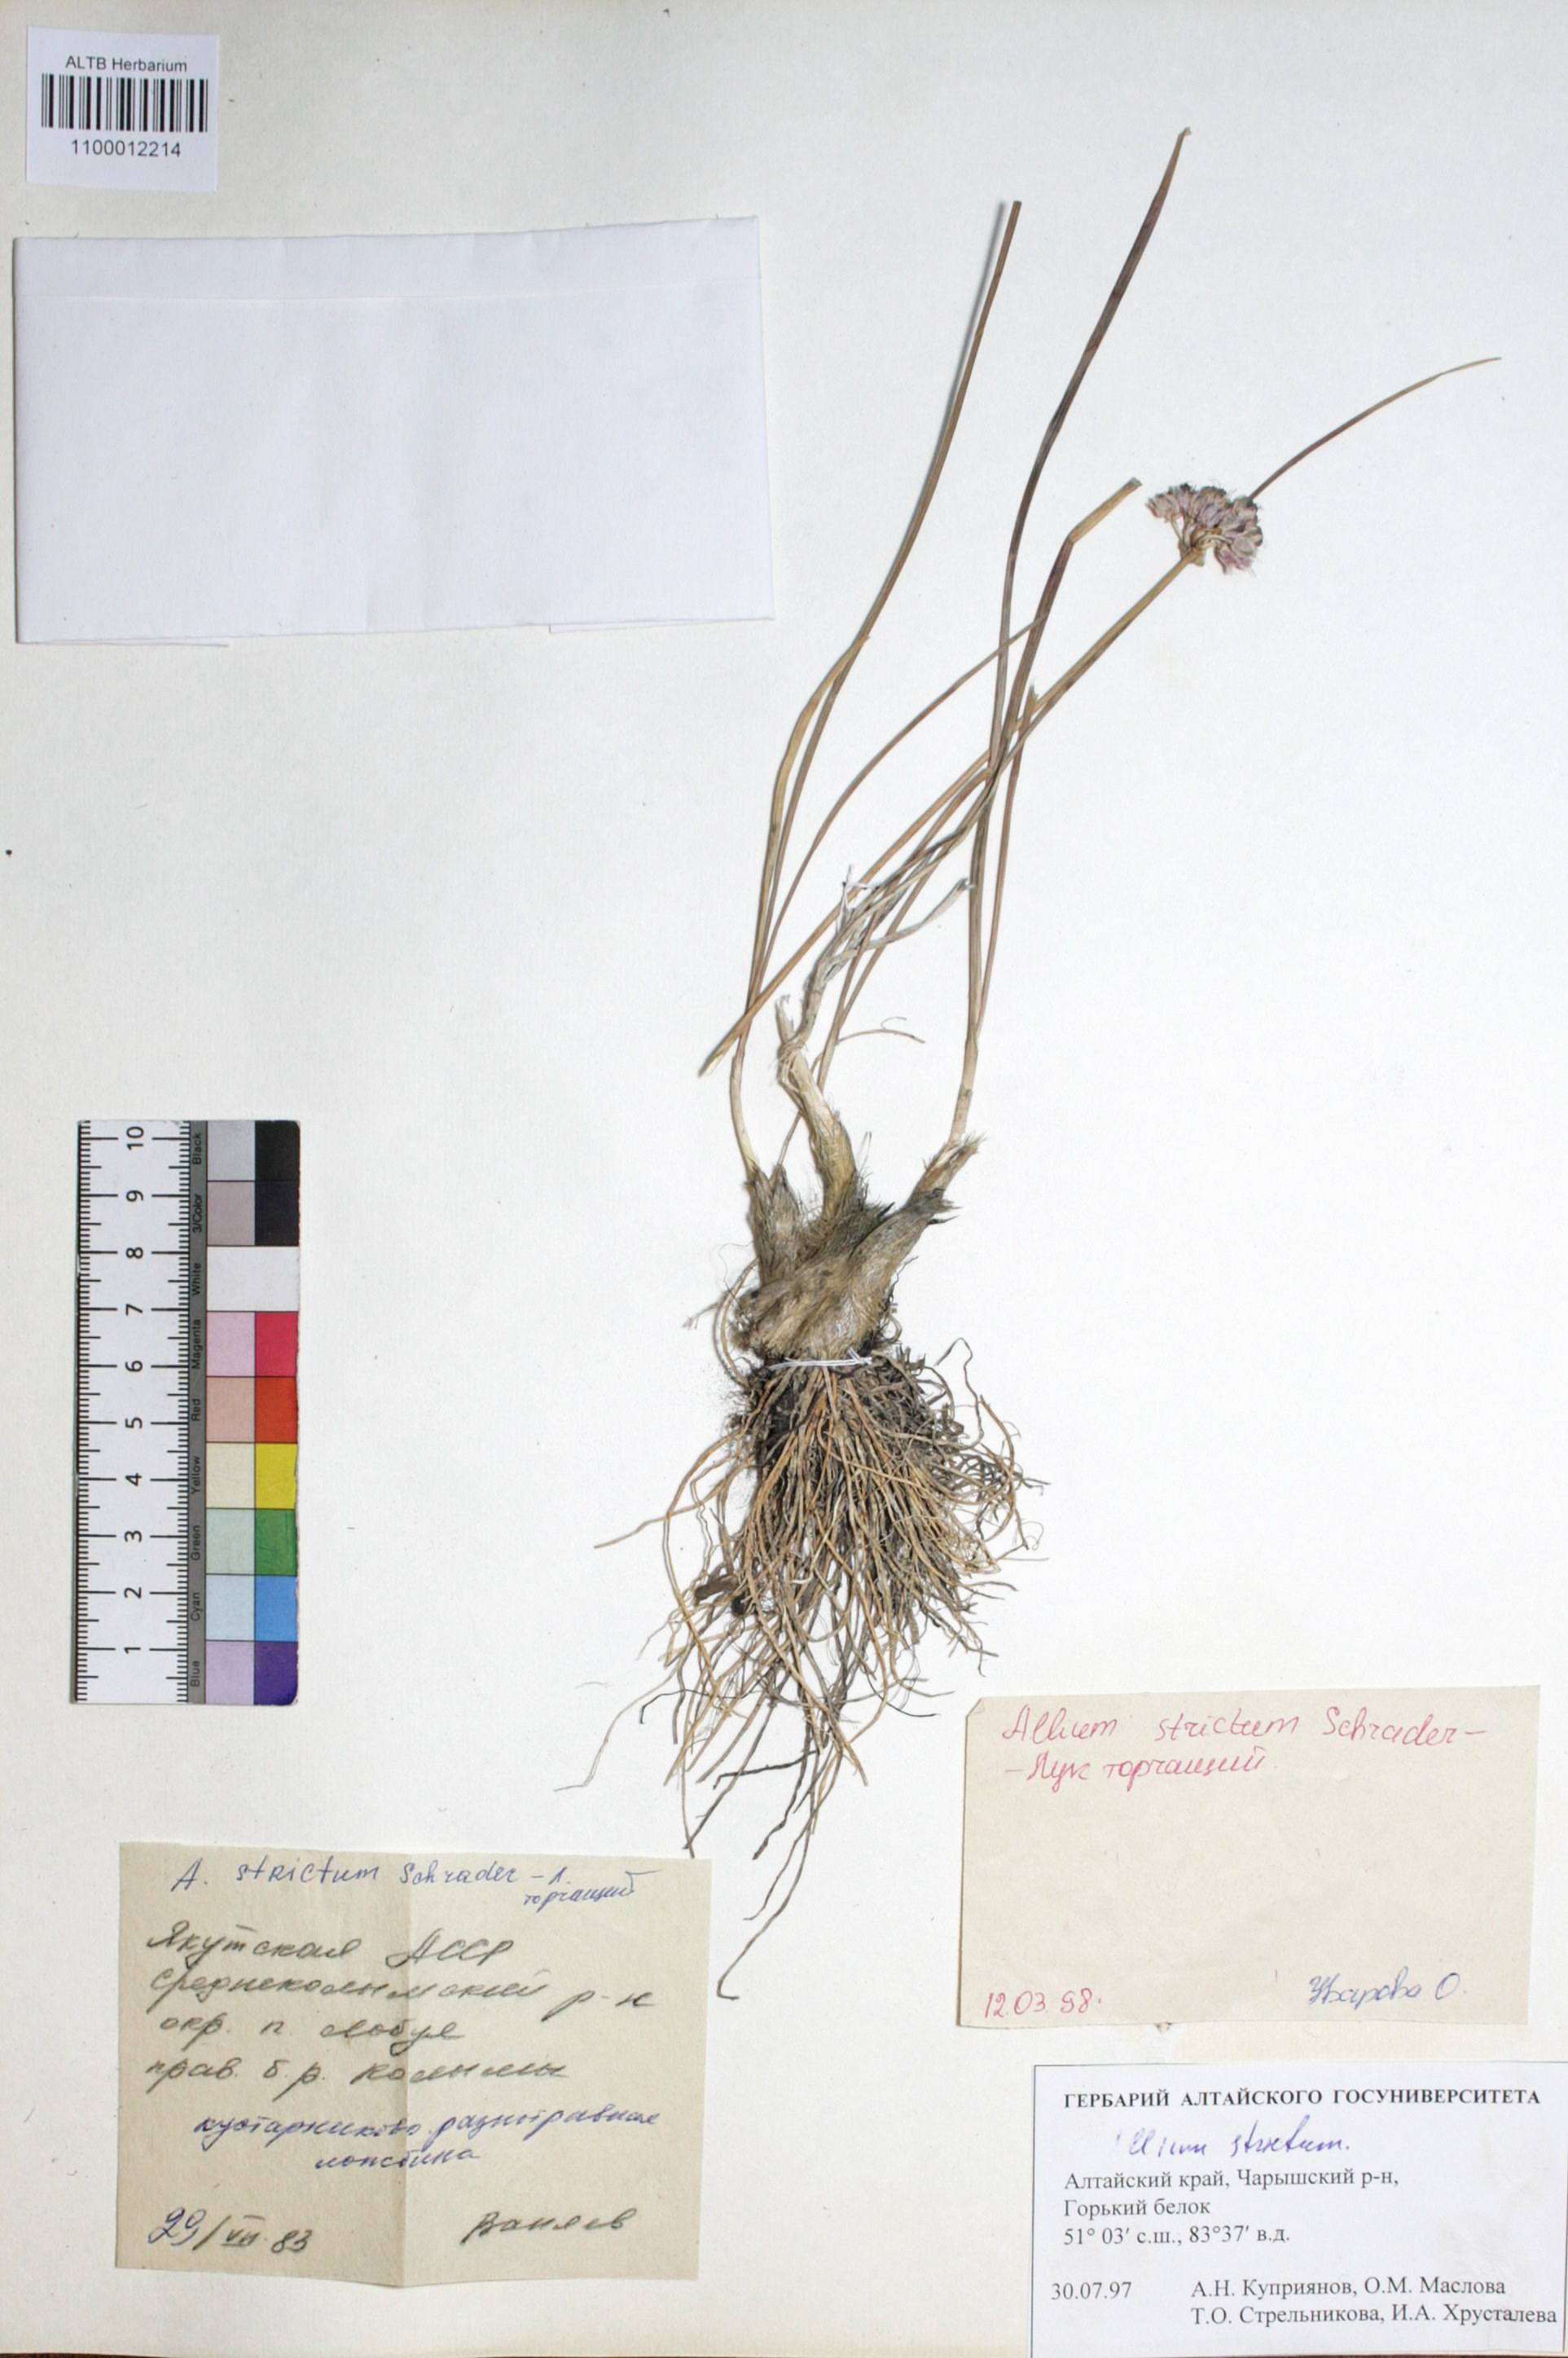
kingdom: Plantae
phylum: Tracheophyta
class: Liliopsida
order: Asparagales
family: Amaryllidaceae
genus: Allium
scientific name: Allium strictum
